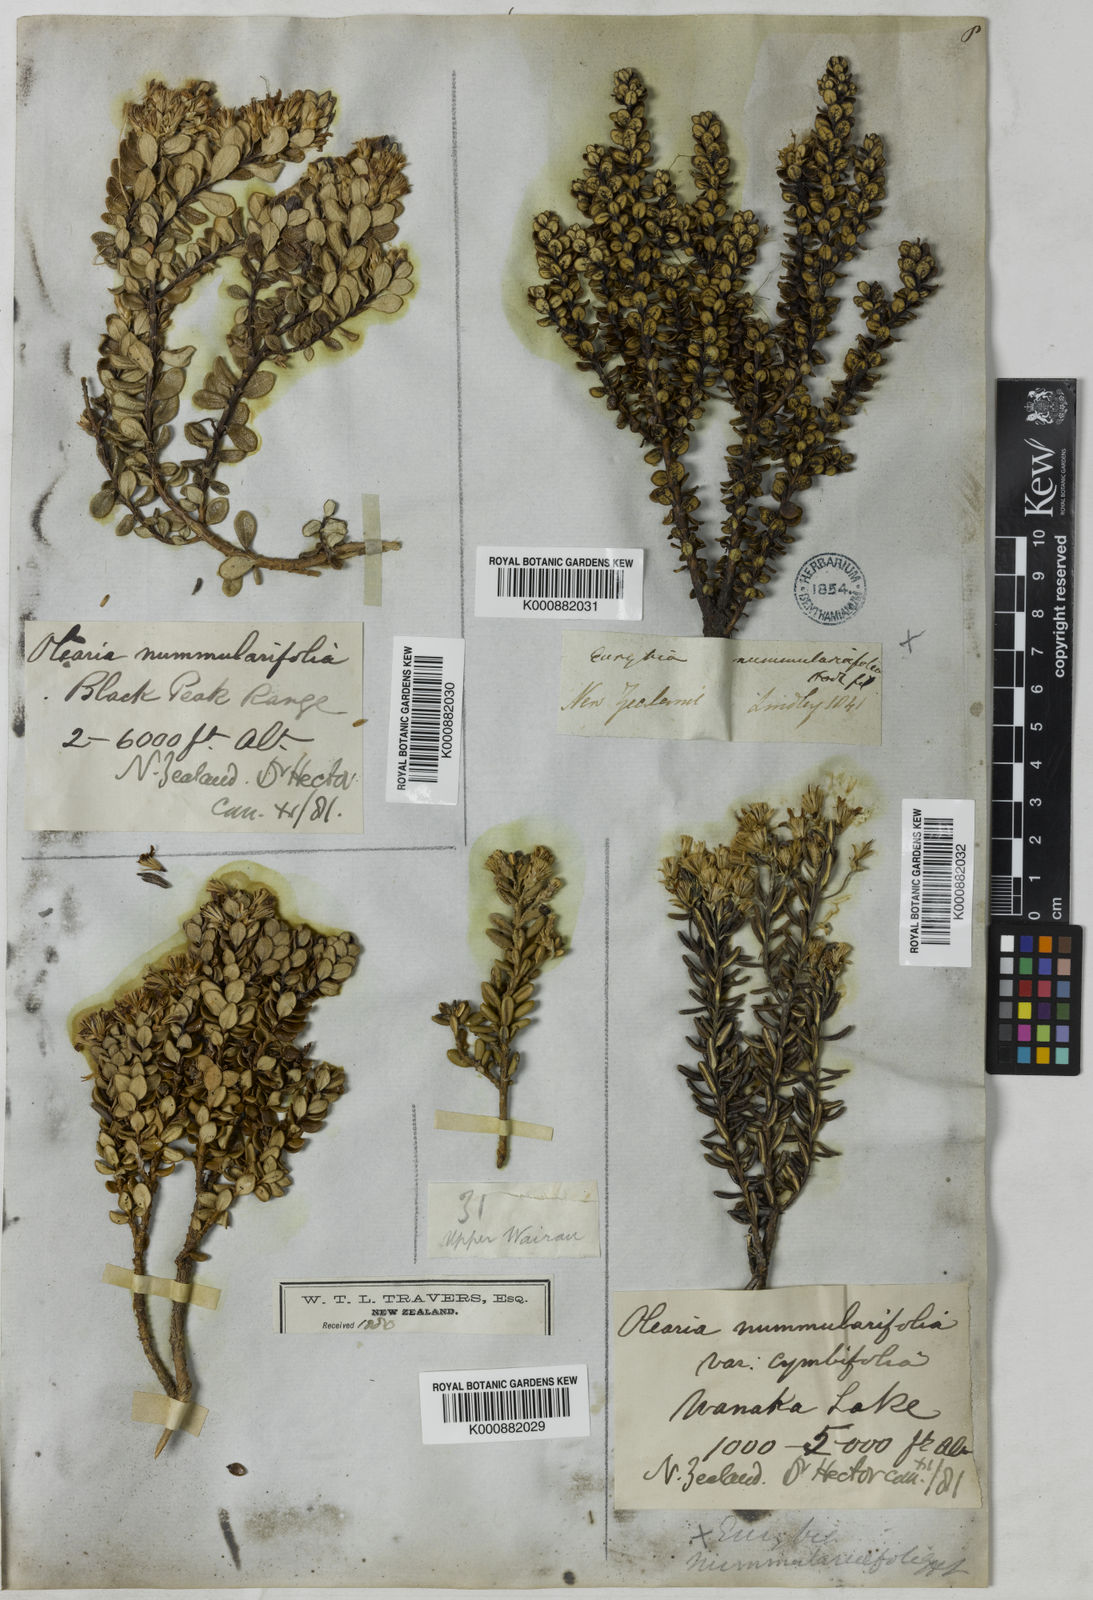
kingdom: Plantae
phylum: Tracheophyta
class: Magnoliopsida
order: Asterales
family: Asteraceae
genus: Olearia
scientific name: Olearia
